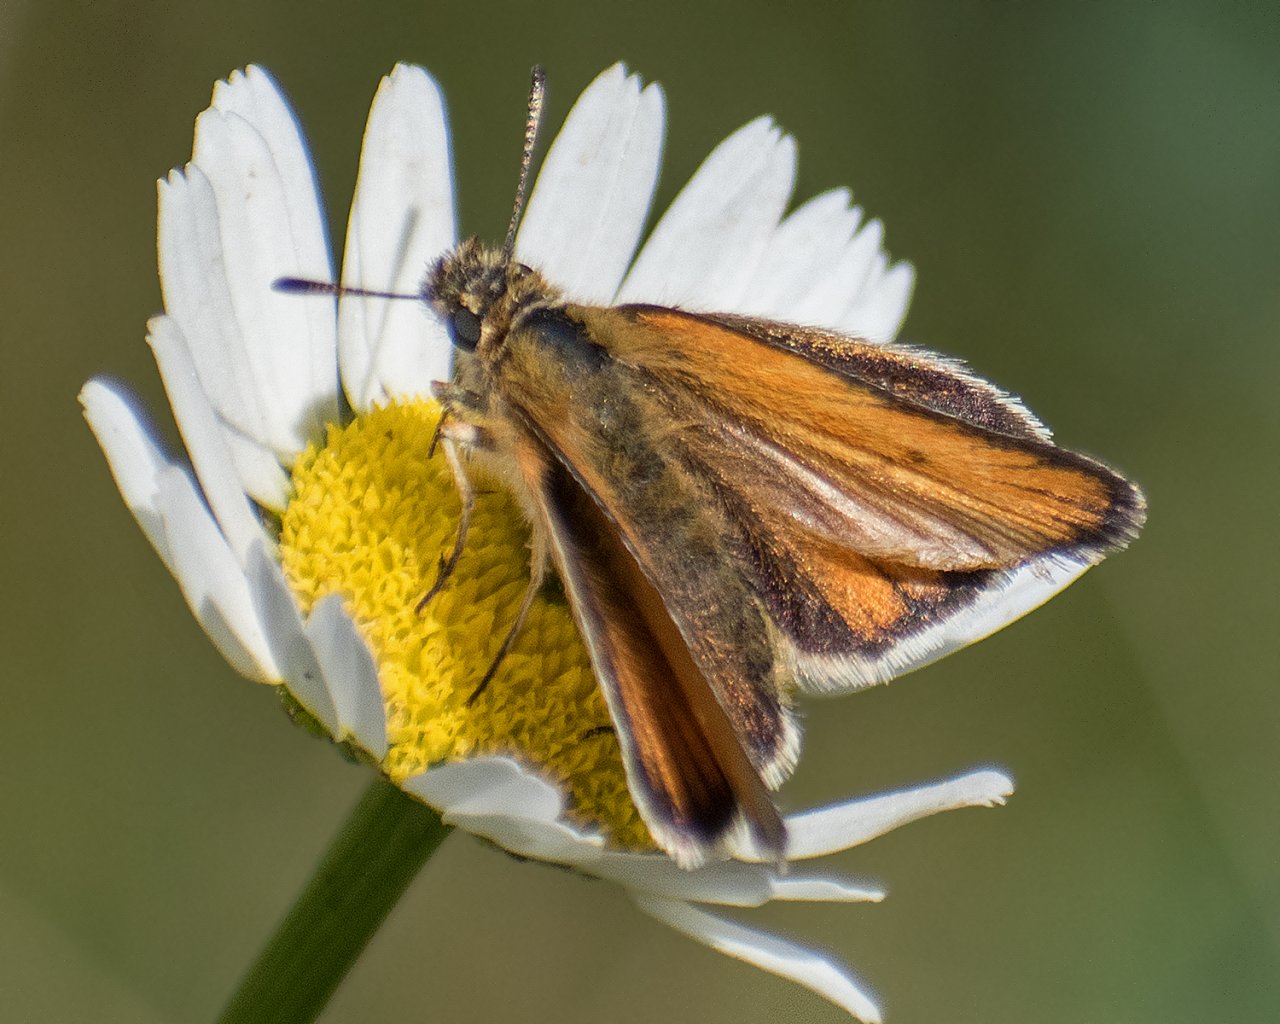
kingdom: Animalia
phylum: Arthropoda
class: Insecta
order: Lepidoptera
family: Hesperiidae
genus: Thymelicus
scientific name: Thymelicus lineola
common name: European Skipper
